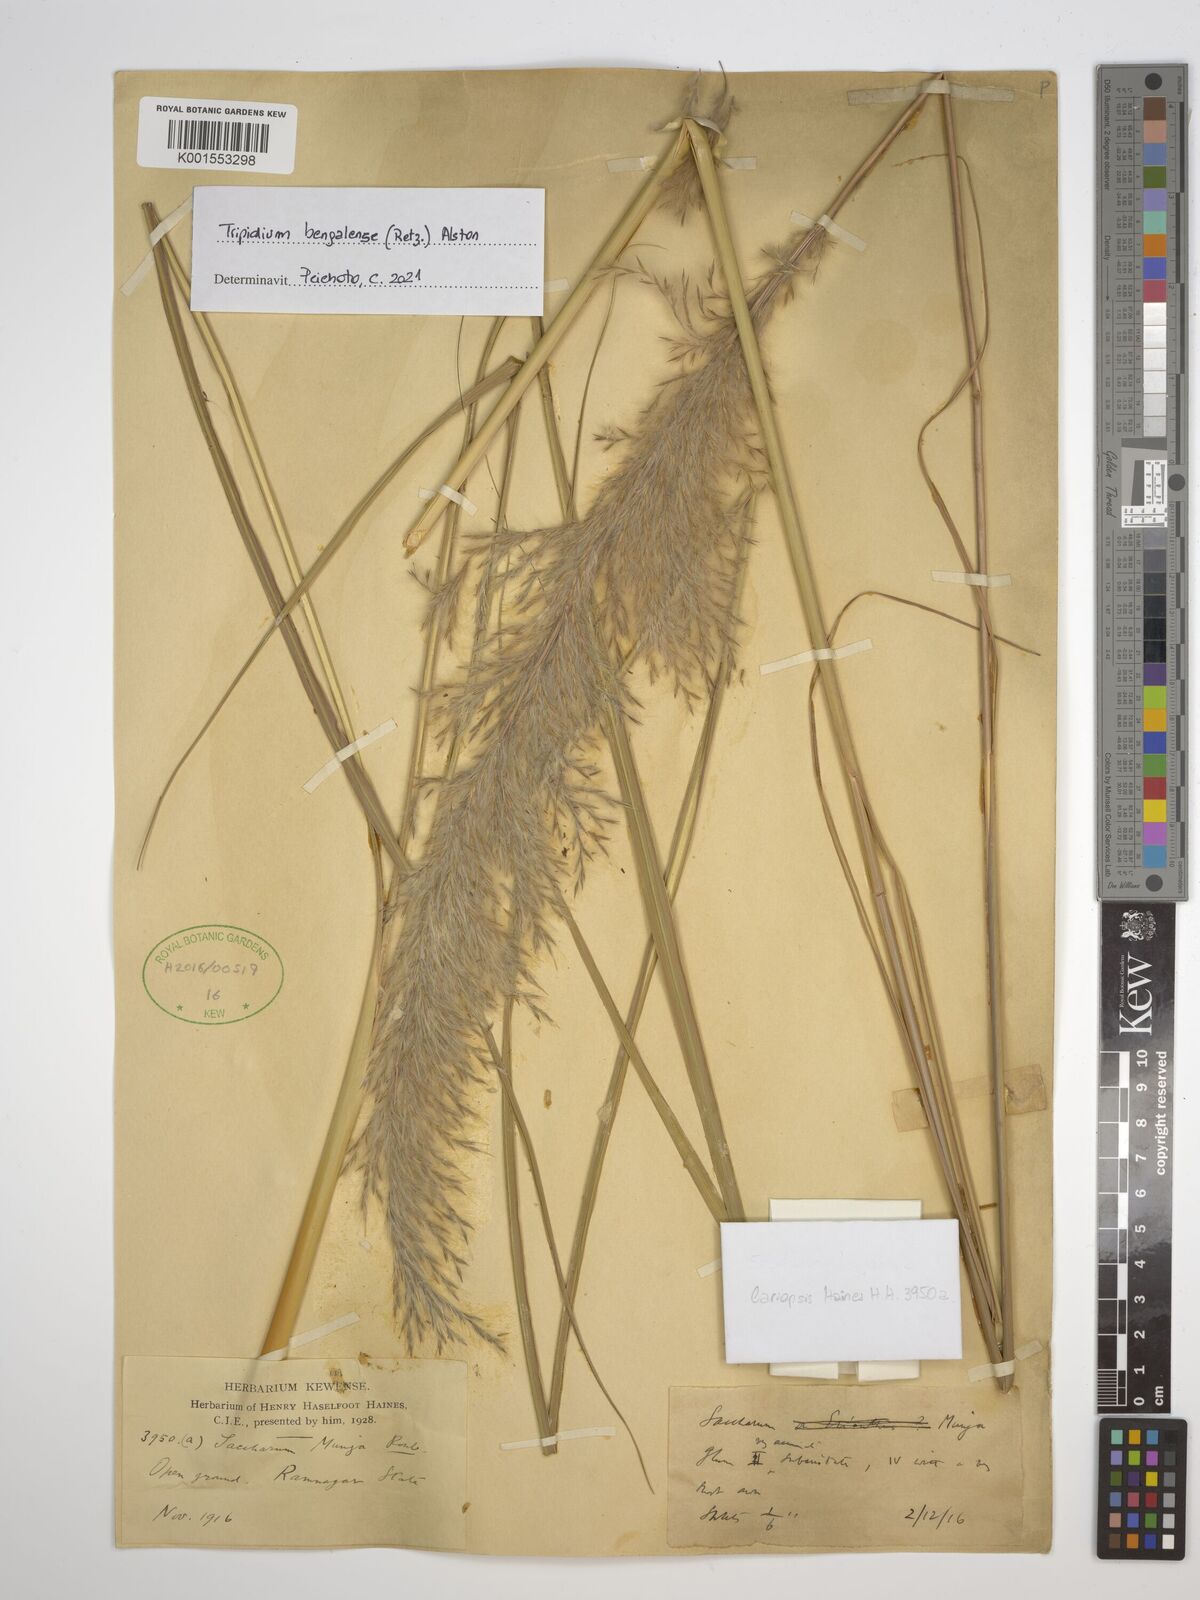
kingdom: Plantae
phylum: Tracheophyta
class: Liliopsida
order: Poales
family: Poaceae
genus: Tripidium
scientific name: Tripidium bengalense
